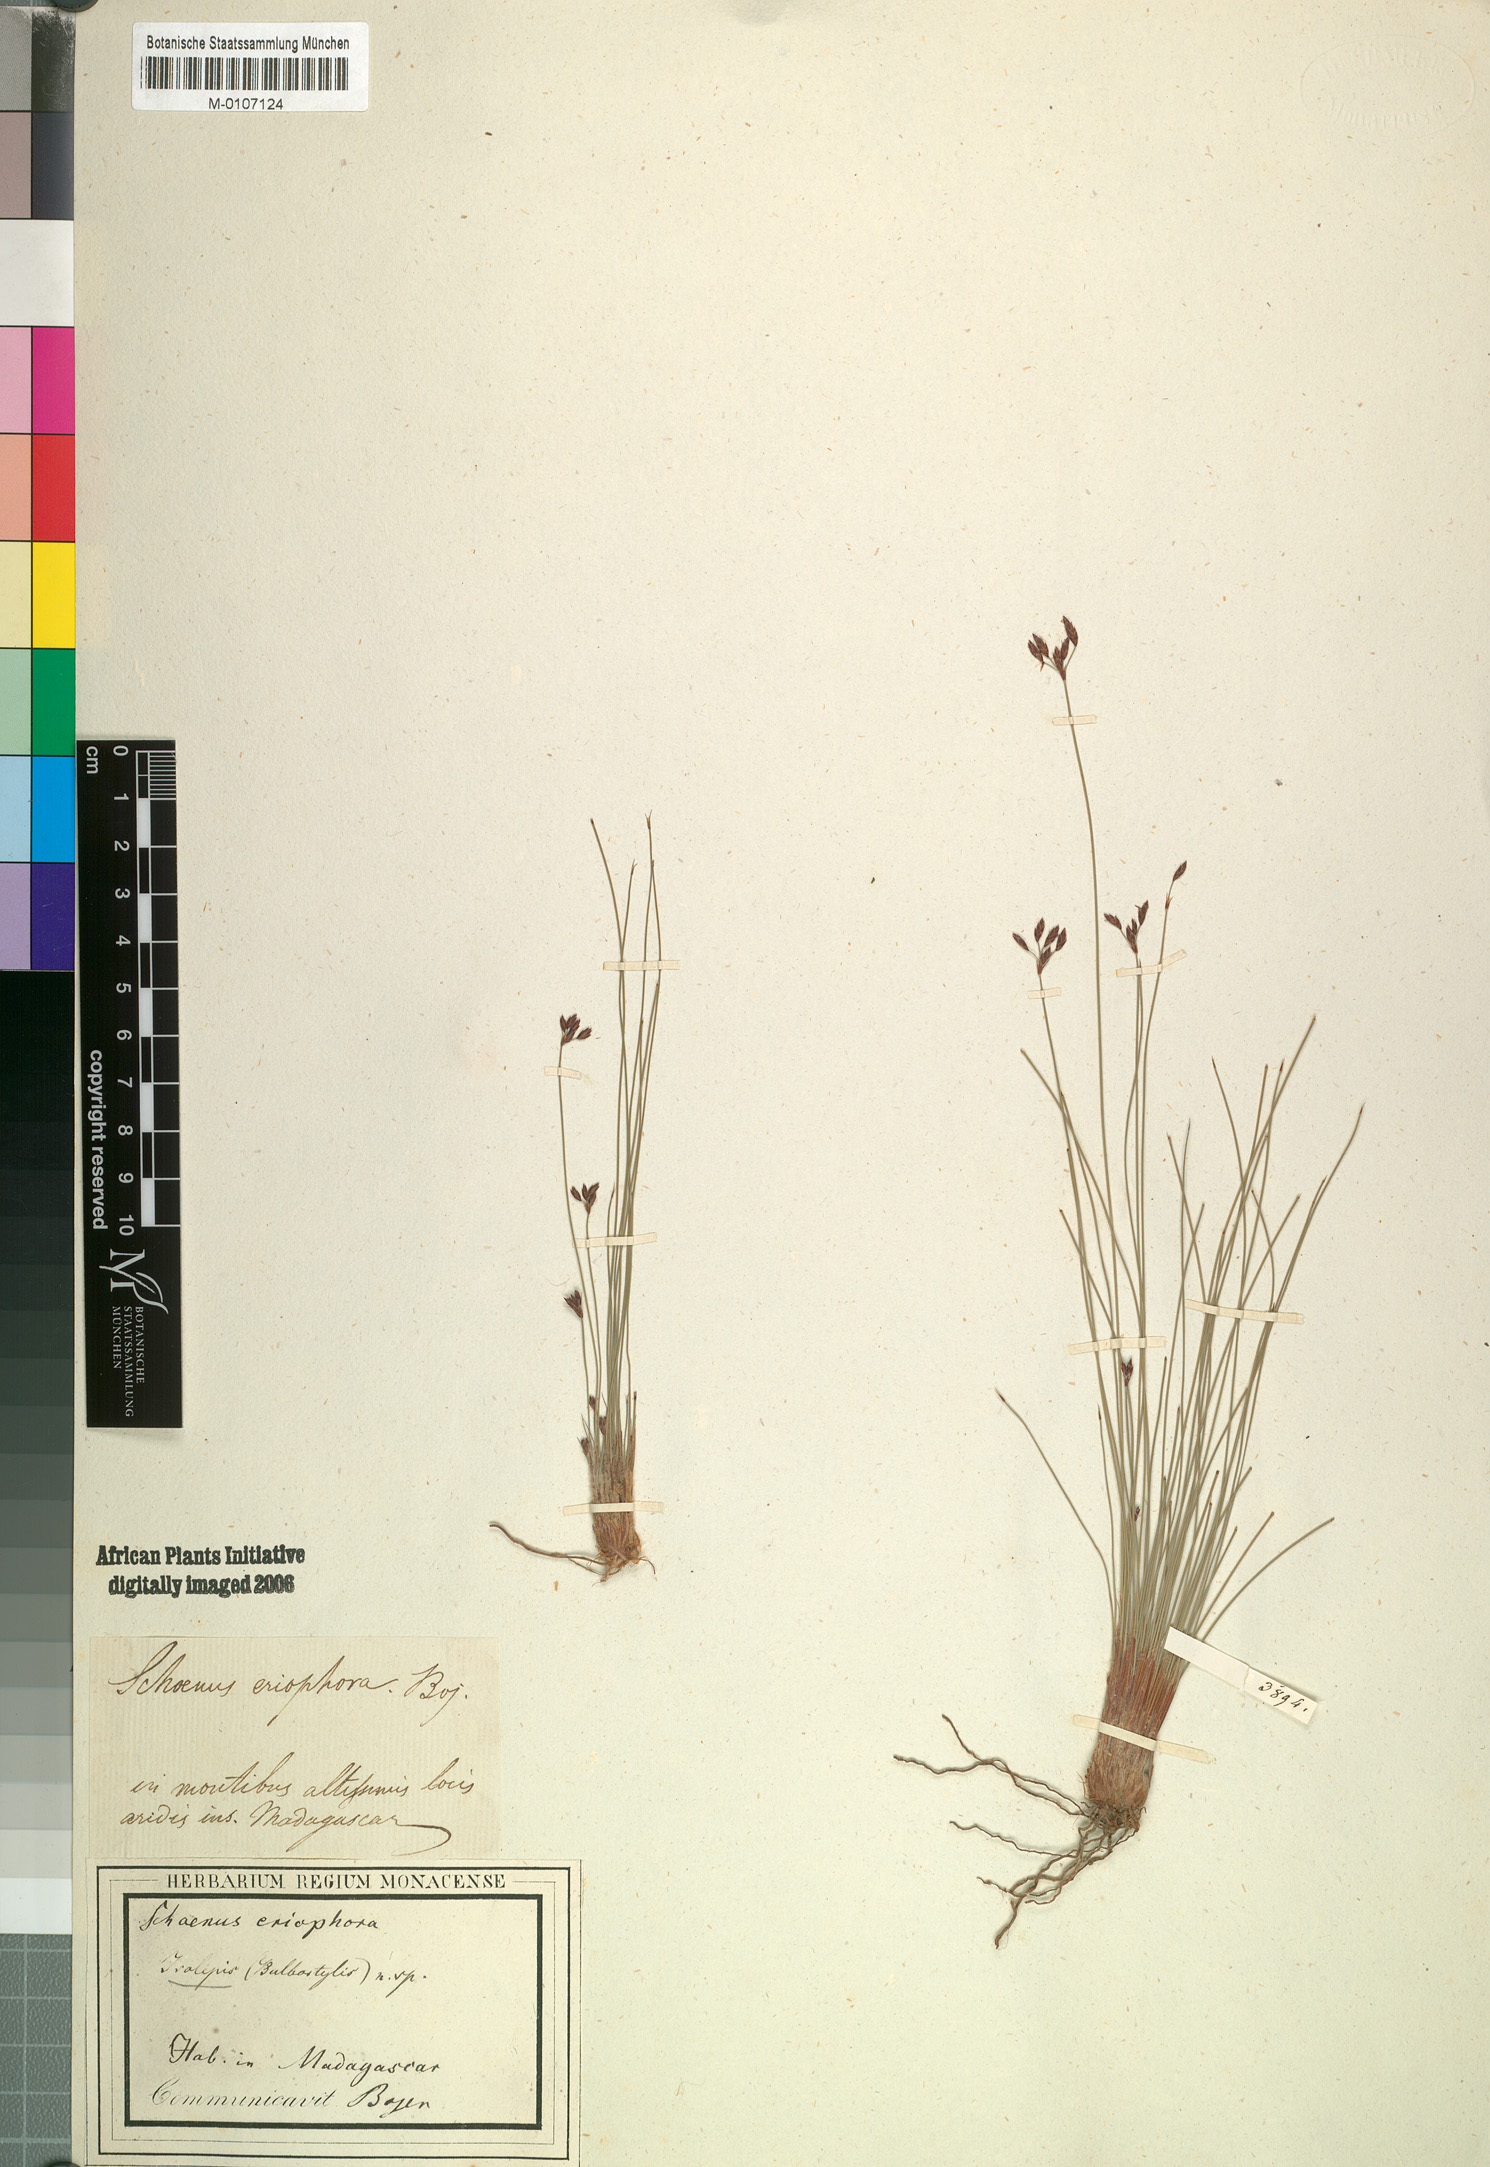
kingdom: Plantae
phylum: Tracheophyta
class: Liliopsida
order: Poales
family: Cyperaceae
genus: Bulbostylis
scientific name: Bulbostylis barbata
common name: Watergrass
